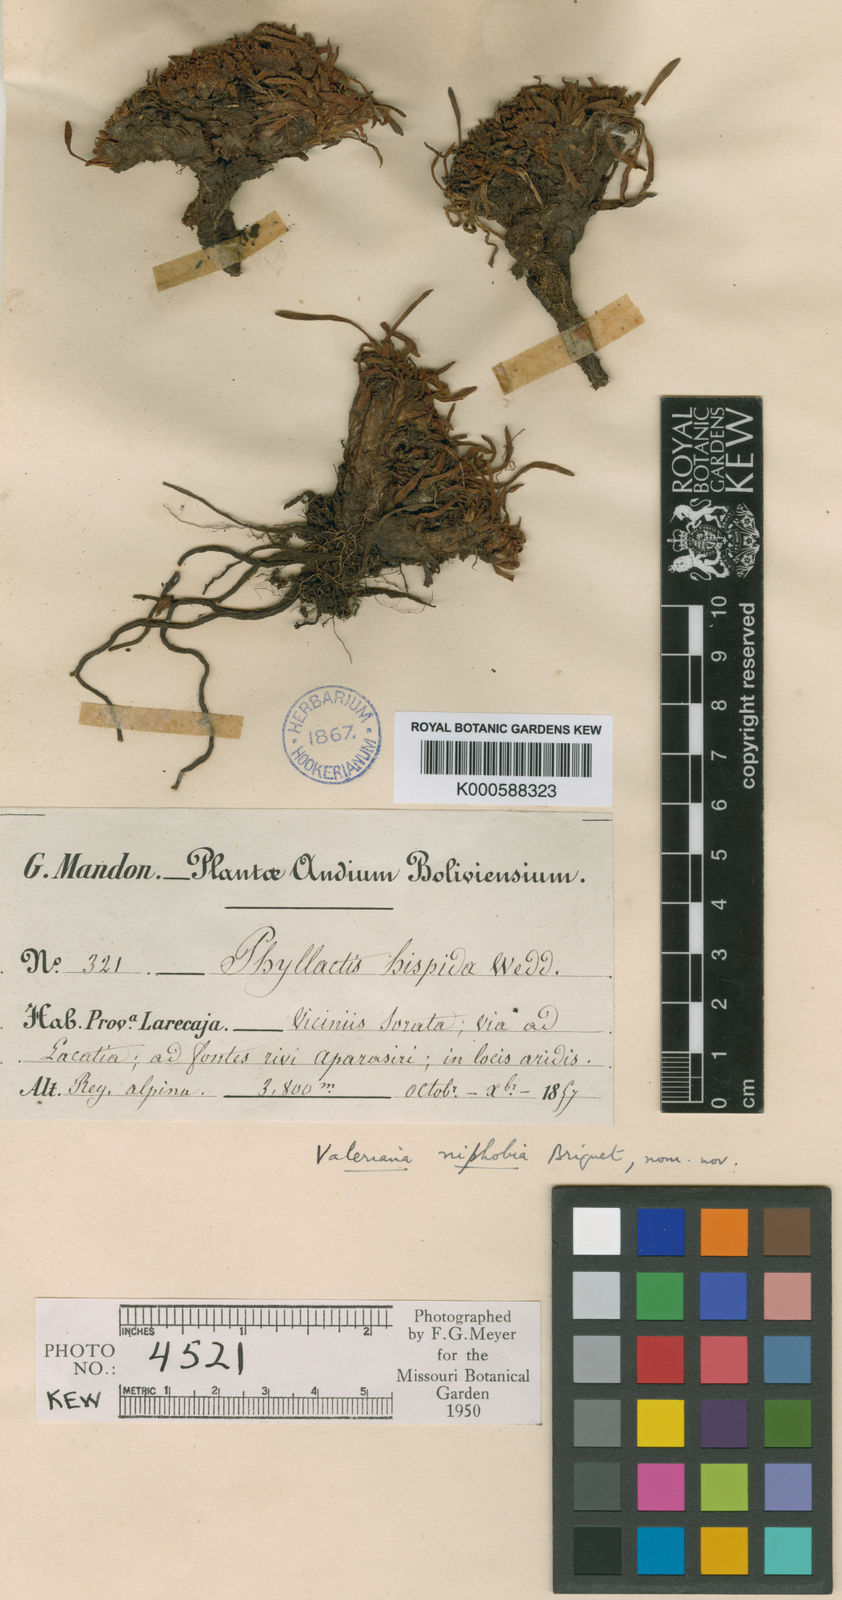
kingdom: Plantae
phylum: Tracheophyta
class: Magnoliopsida
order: Dipsacales
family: Caprifoliaceae
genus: Valeriana
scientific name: Valeriana niphobia
